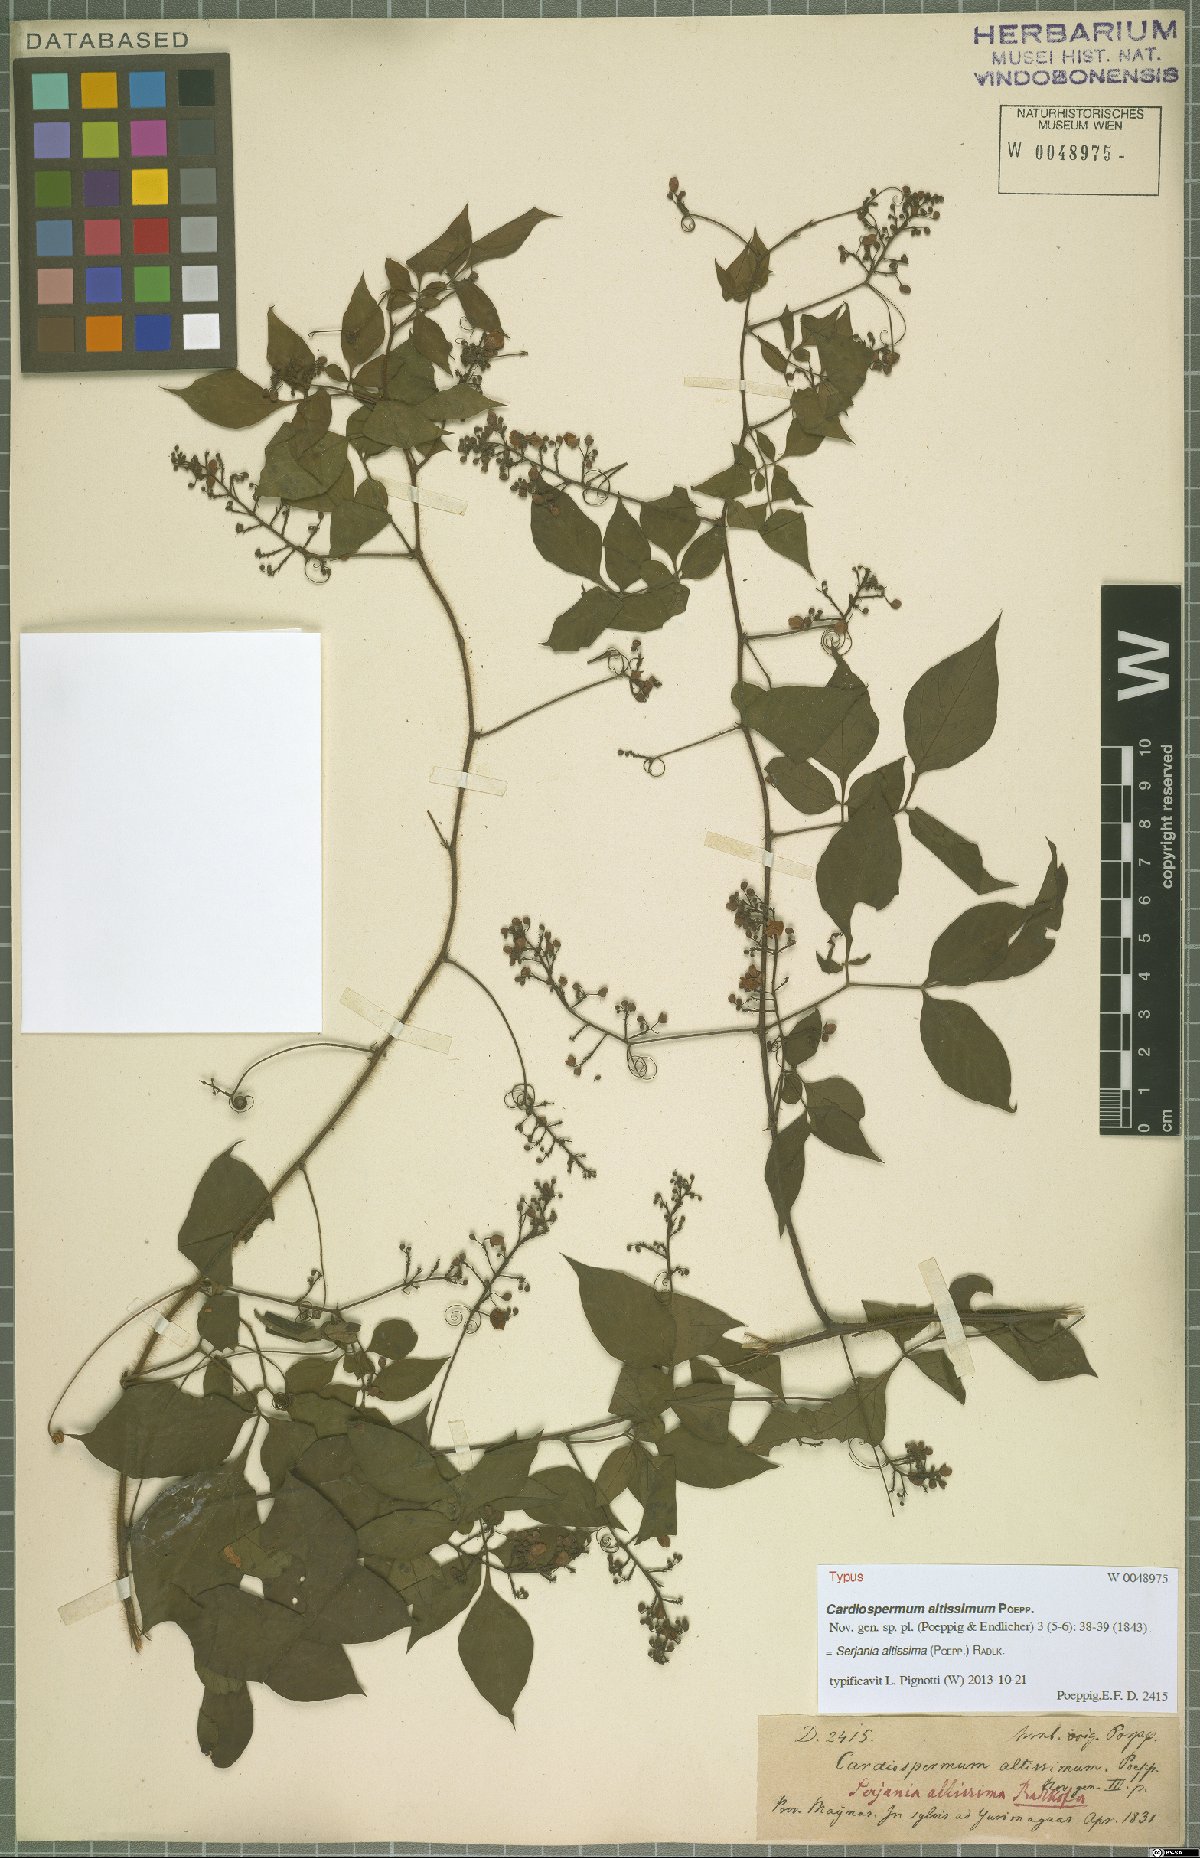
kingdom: Plantae
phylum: Tracheophyta
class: Magnoliopsida
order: Sapindales
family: Sapindaceae
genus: Serjania
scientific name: Serjania altissima
